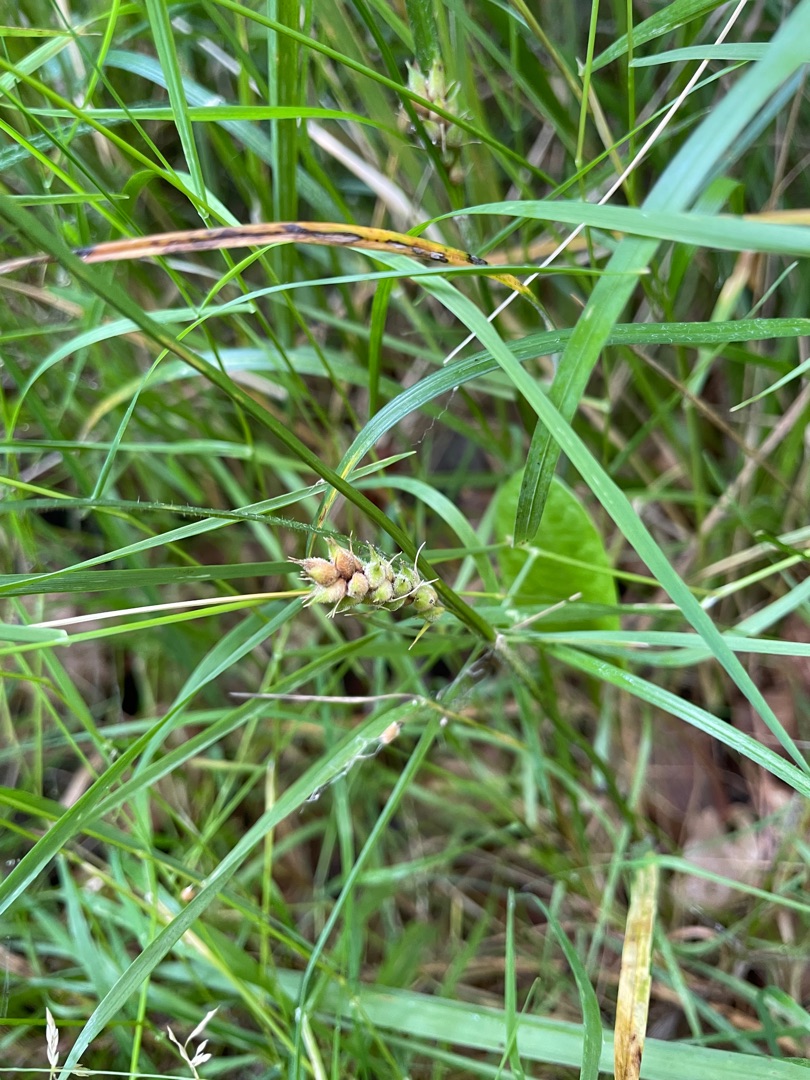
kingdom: Plantae
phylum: Tracheophyta
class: Liliopsida
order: Poales
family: Cyperaceae
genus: Carex
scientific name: Carex hirta
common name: Håret star
